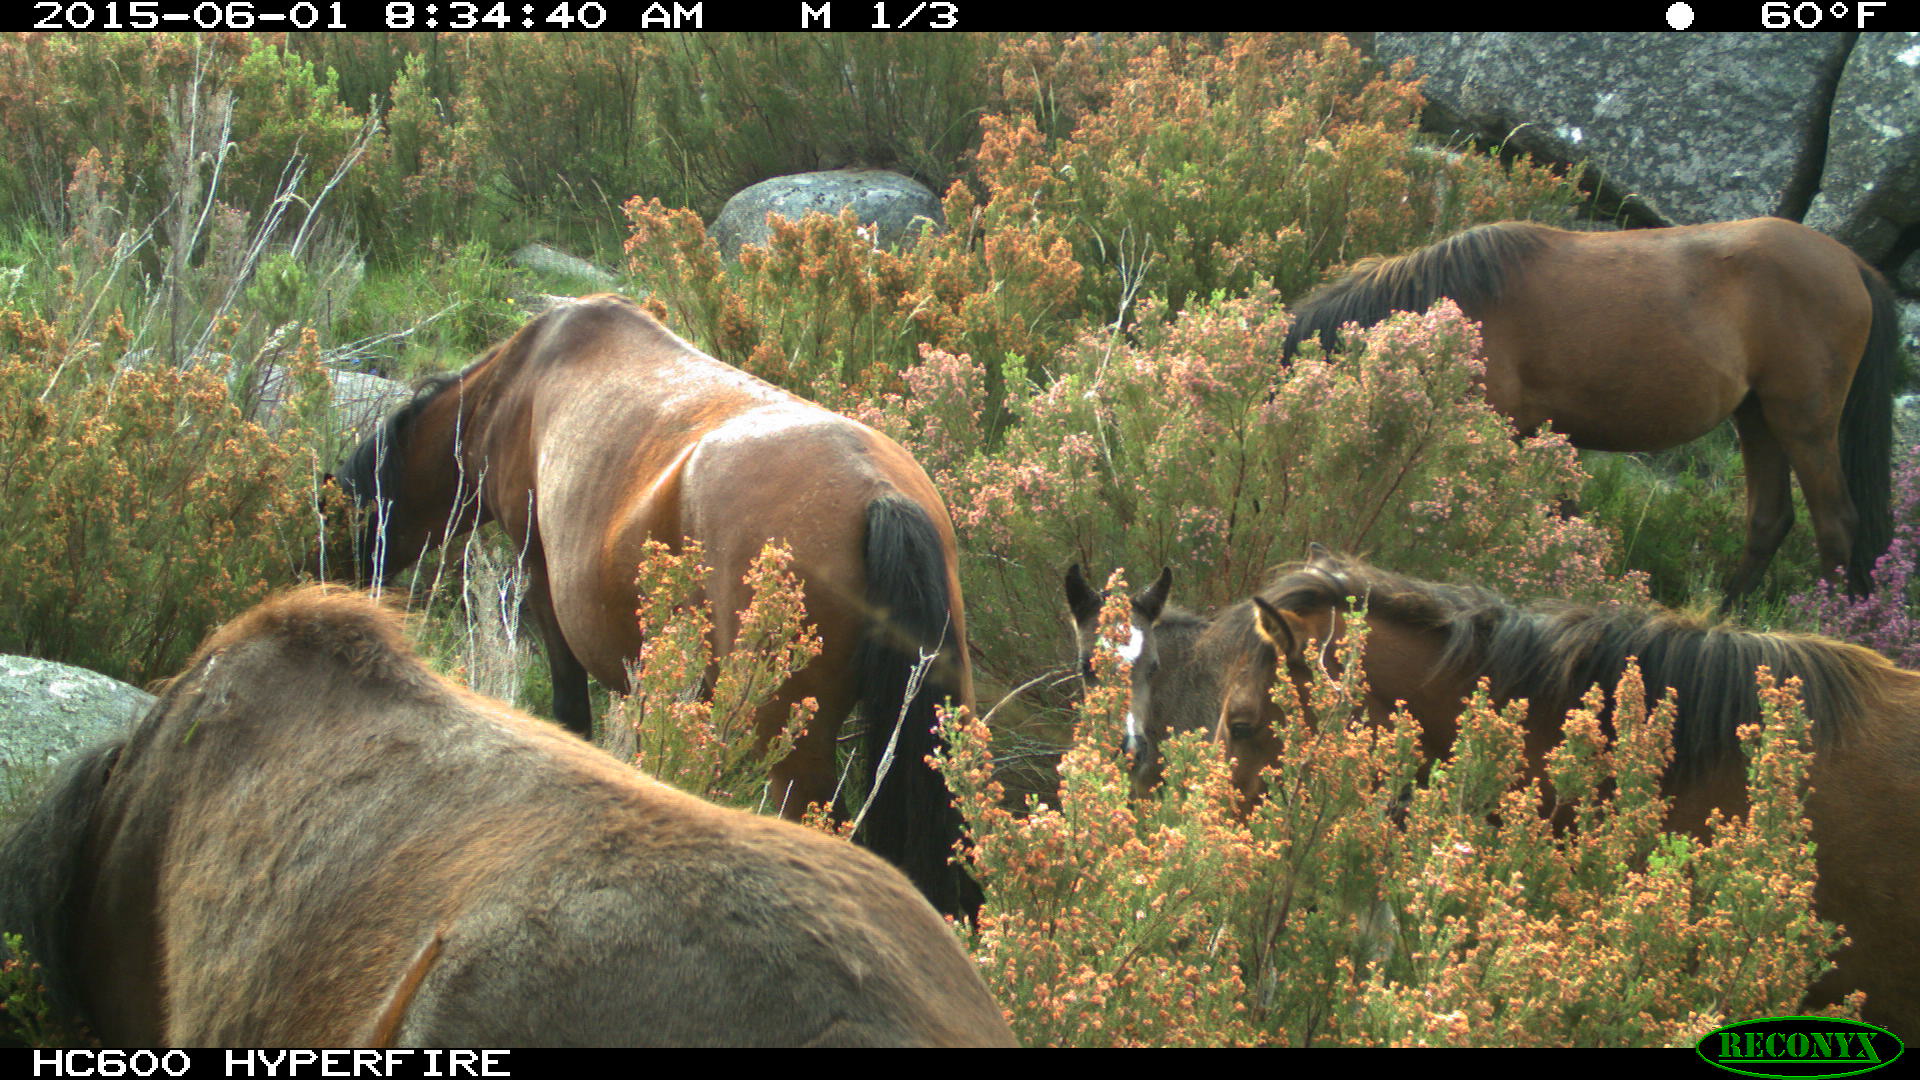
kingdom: Animalia
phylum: Chordata
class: Mammalia
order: Perissodactyla
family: Equidae
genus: Equus
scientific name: Equus caballus
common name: Horse
